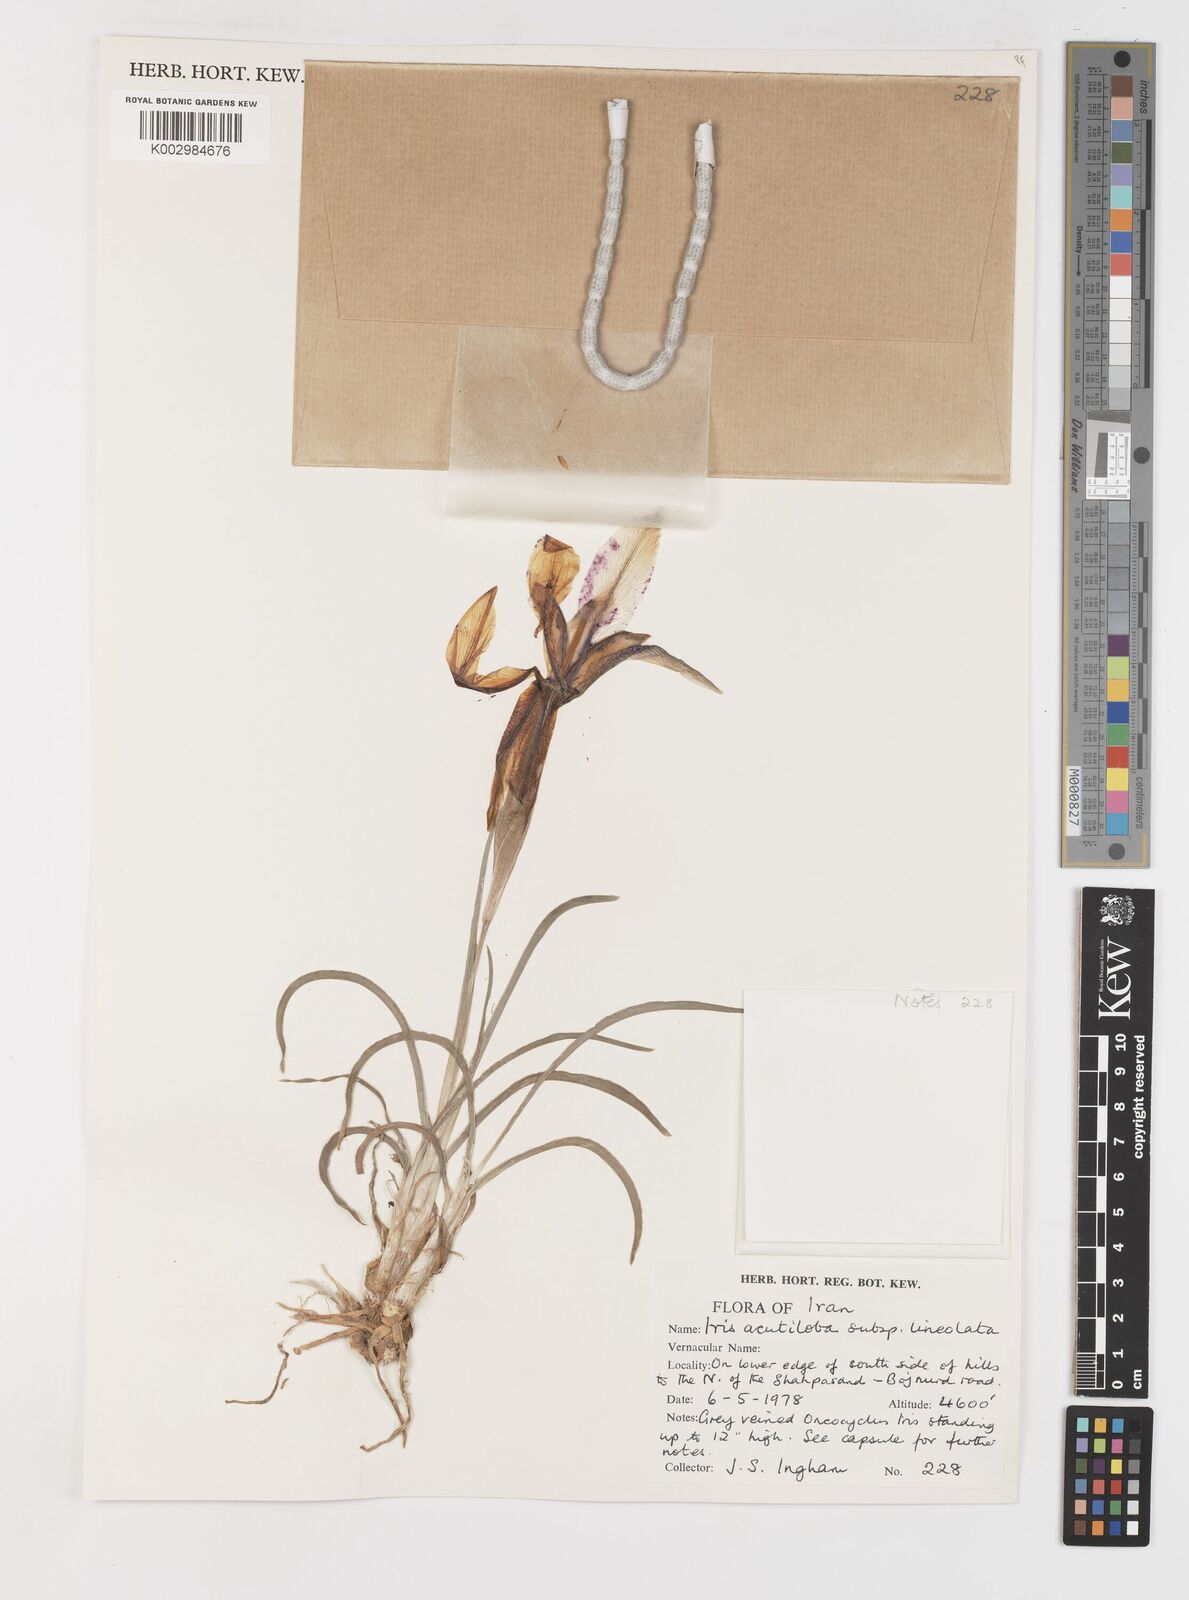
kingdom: Plantae
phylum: Tracheophyta
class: Liliopsida
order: Asparagales
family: Iridaceae
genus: Iris
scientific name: Iris acutiloba
